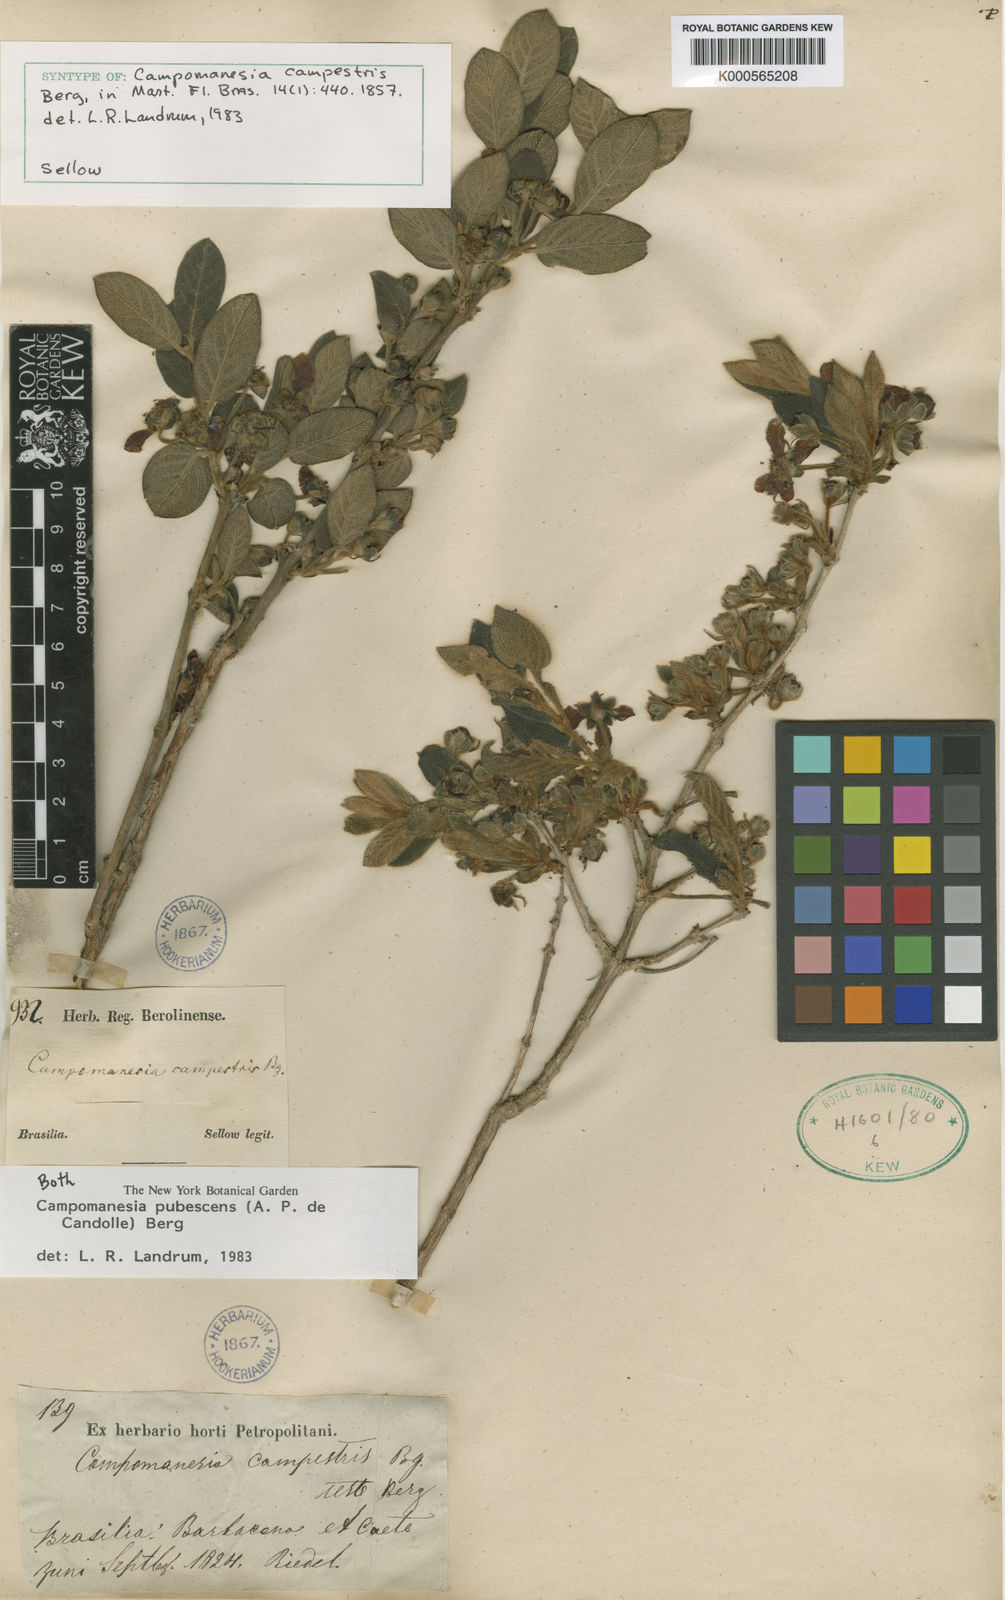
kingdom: Plantae
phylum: Tracheophyta
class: Magnoliopsida
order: Myrtales
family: Myrtaceae
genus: Campomanesia
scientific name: Campomanesia pubescens
